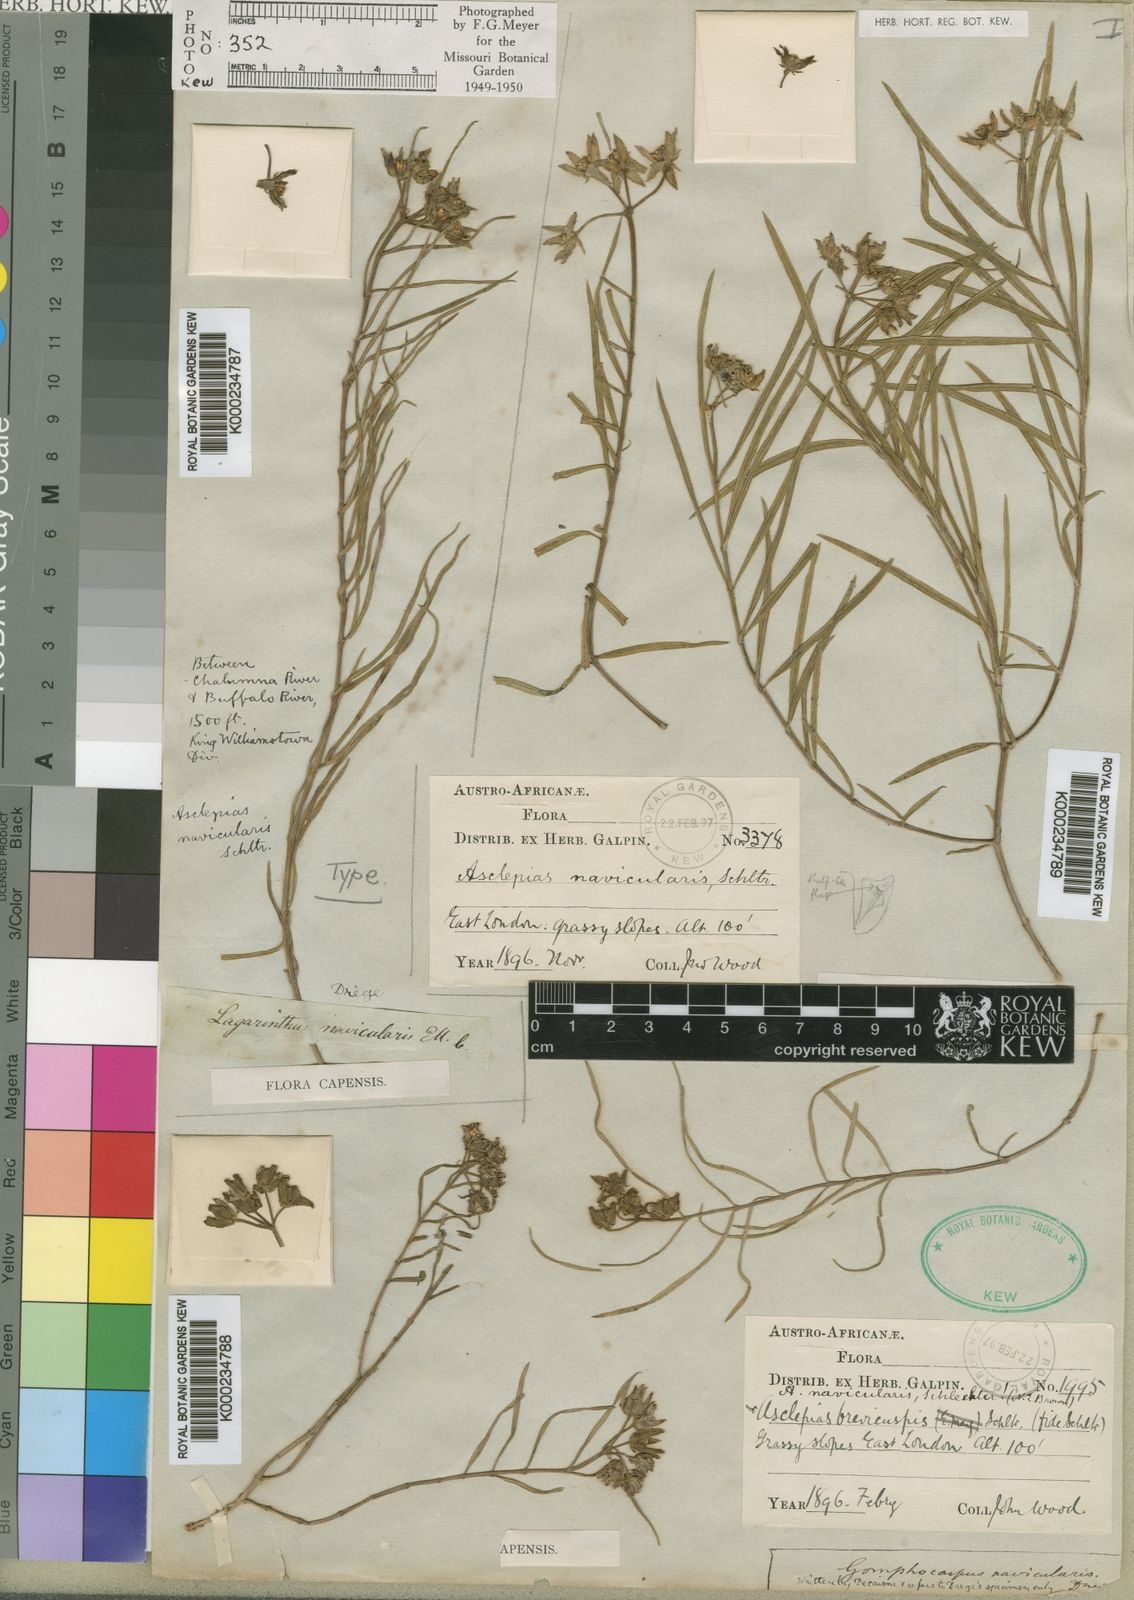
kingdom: Plantae
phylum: Tracheophyta
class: Magnoliopsida
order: Gentianales
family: Apocynaceae
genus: Asclepias
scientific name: Asclepias navicularis
